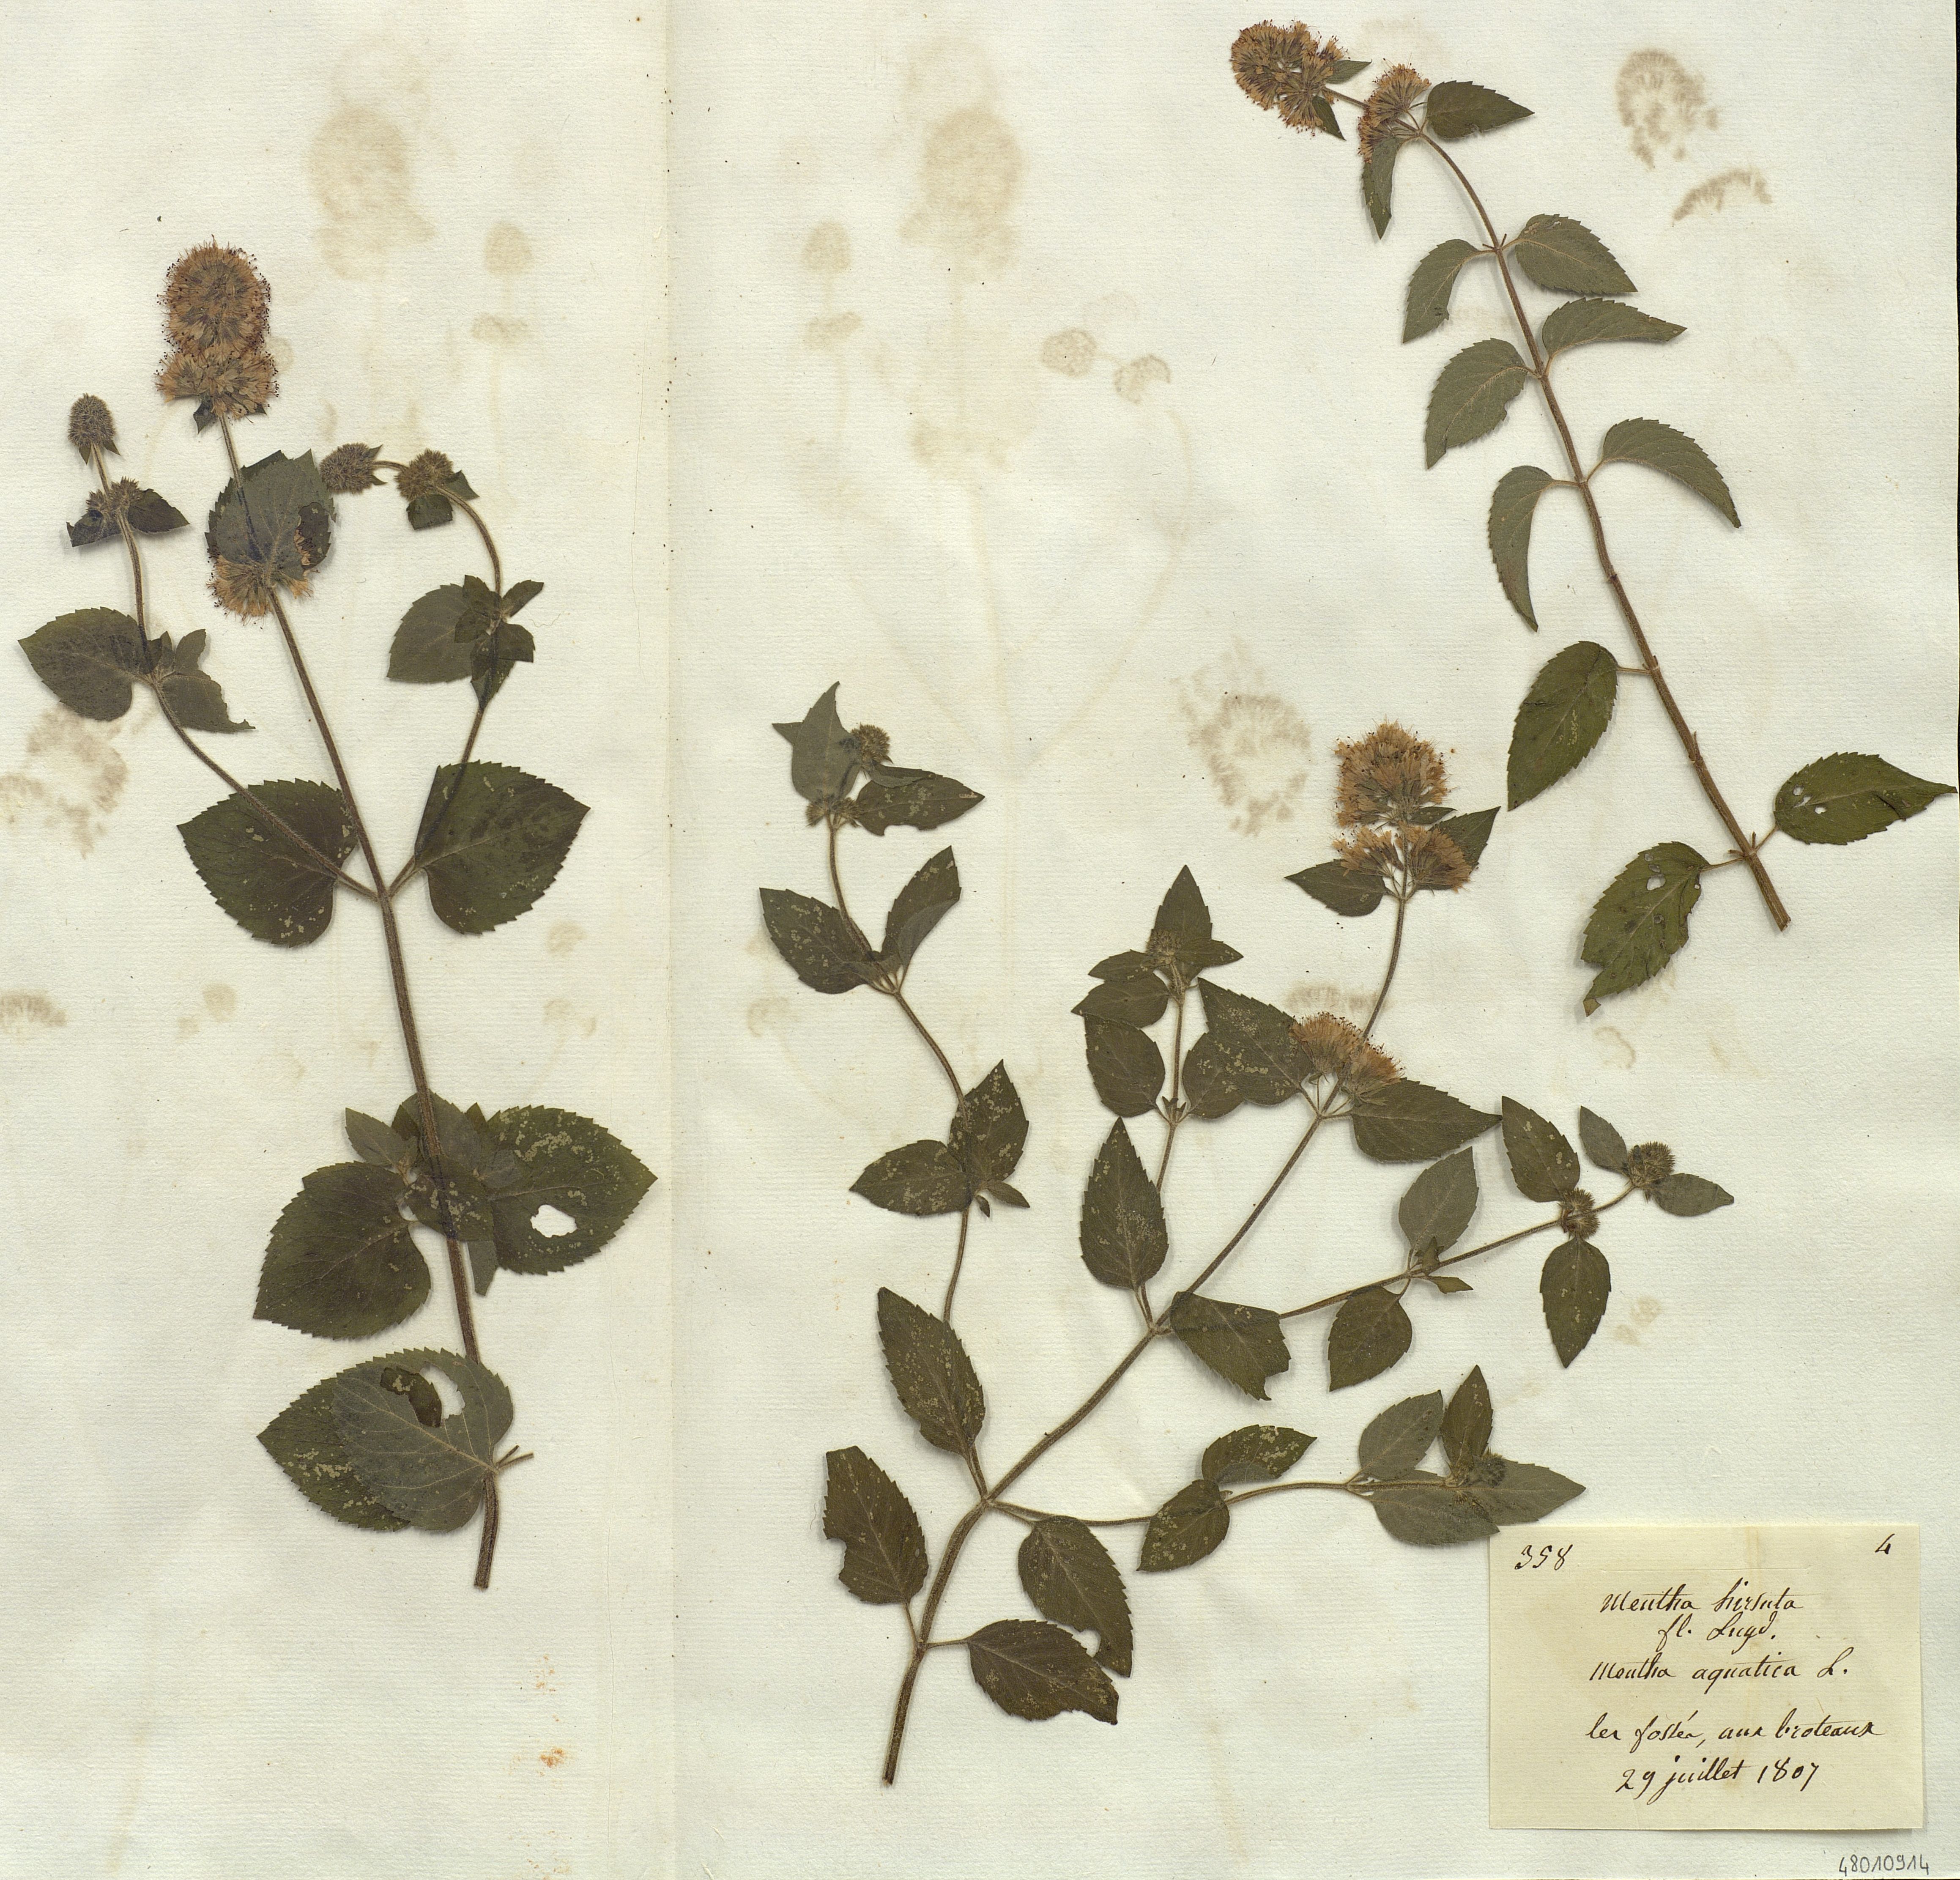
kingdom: Plantae
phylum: Tracheophyta
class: Magnoliopsida
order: Lamiales
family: Lamiaceae
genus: Mentha
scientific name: Mentha aquatica
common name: Water mint
